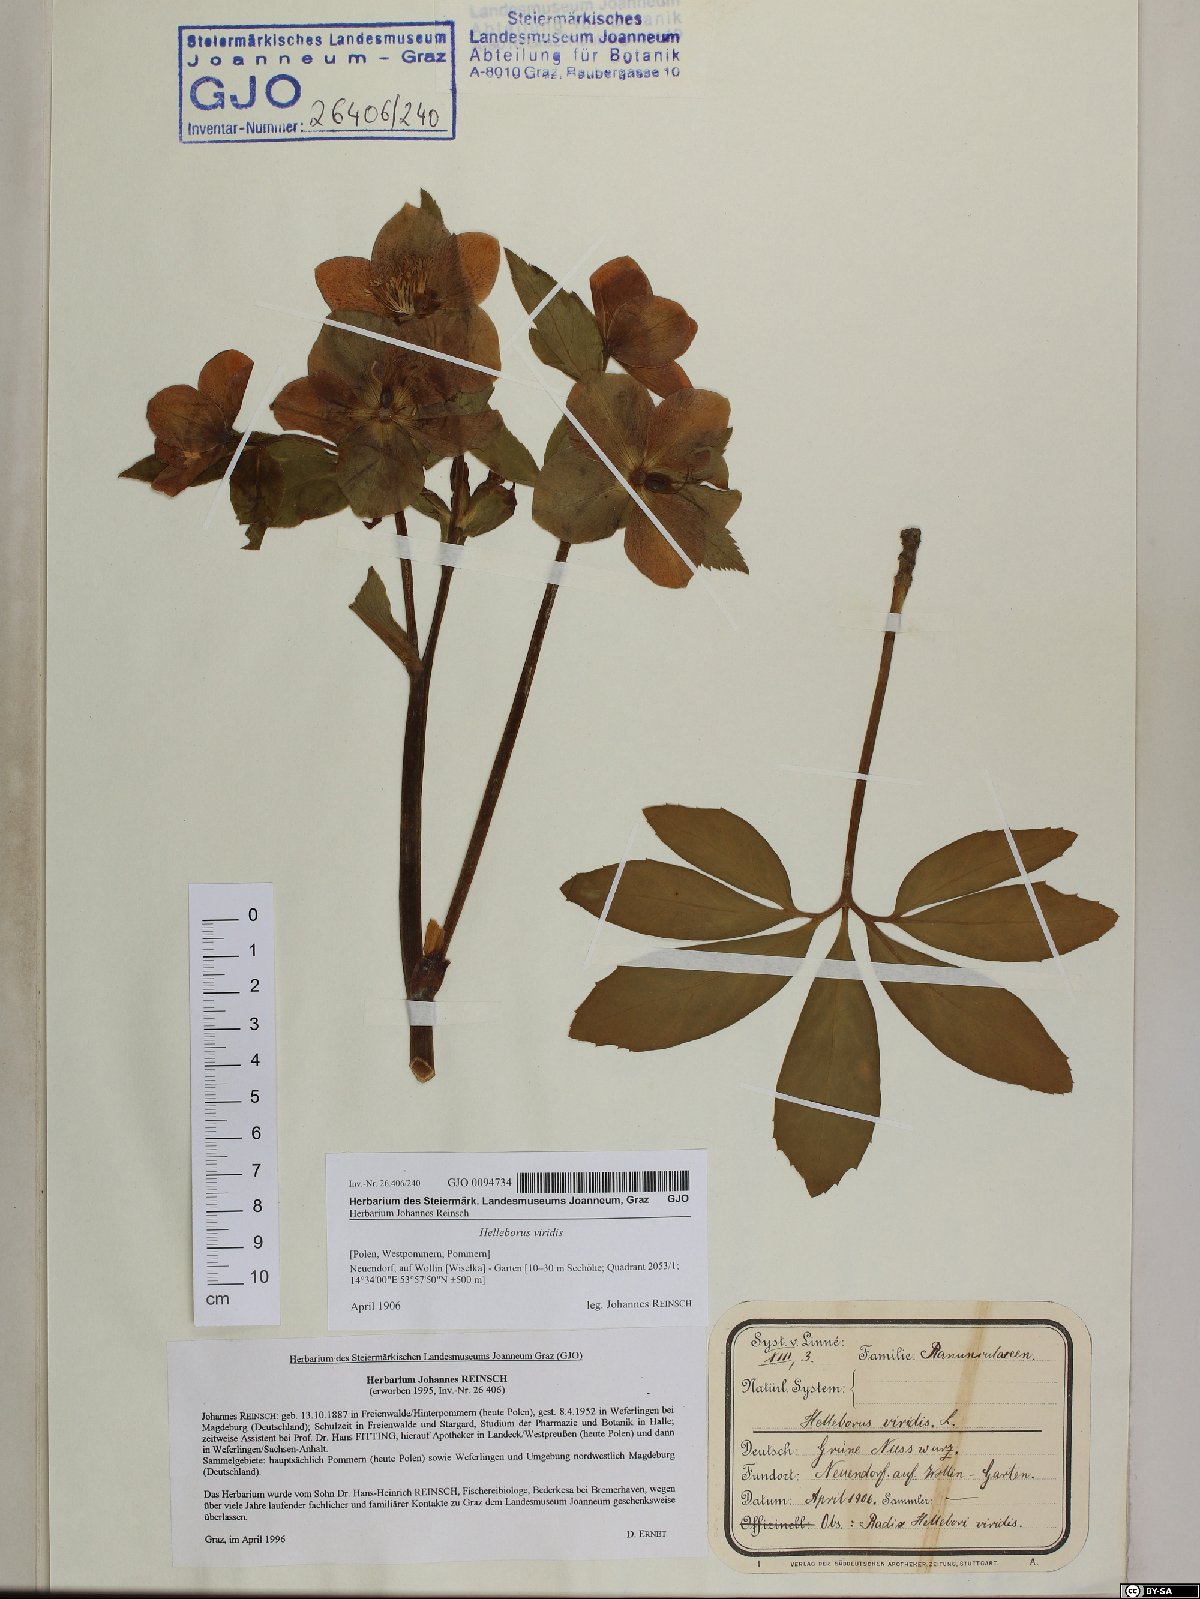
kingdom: Plantae
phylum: Tracheophyta
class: Magnoliopsida
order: Ranunculales
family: Ranunculaceae
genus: Helleborus
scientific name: Helleborus viridis
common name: Green hellebore
